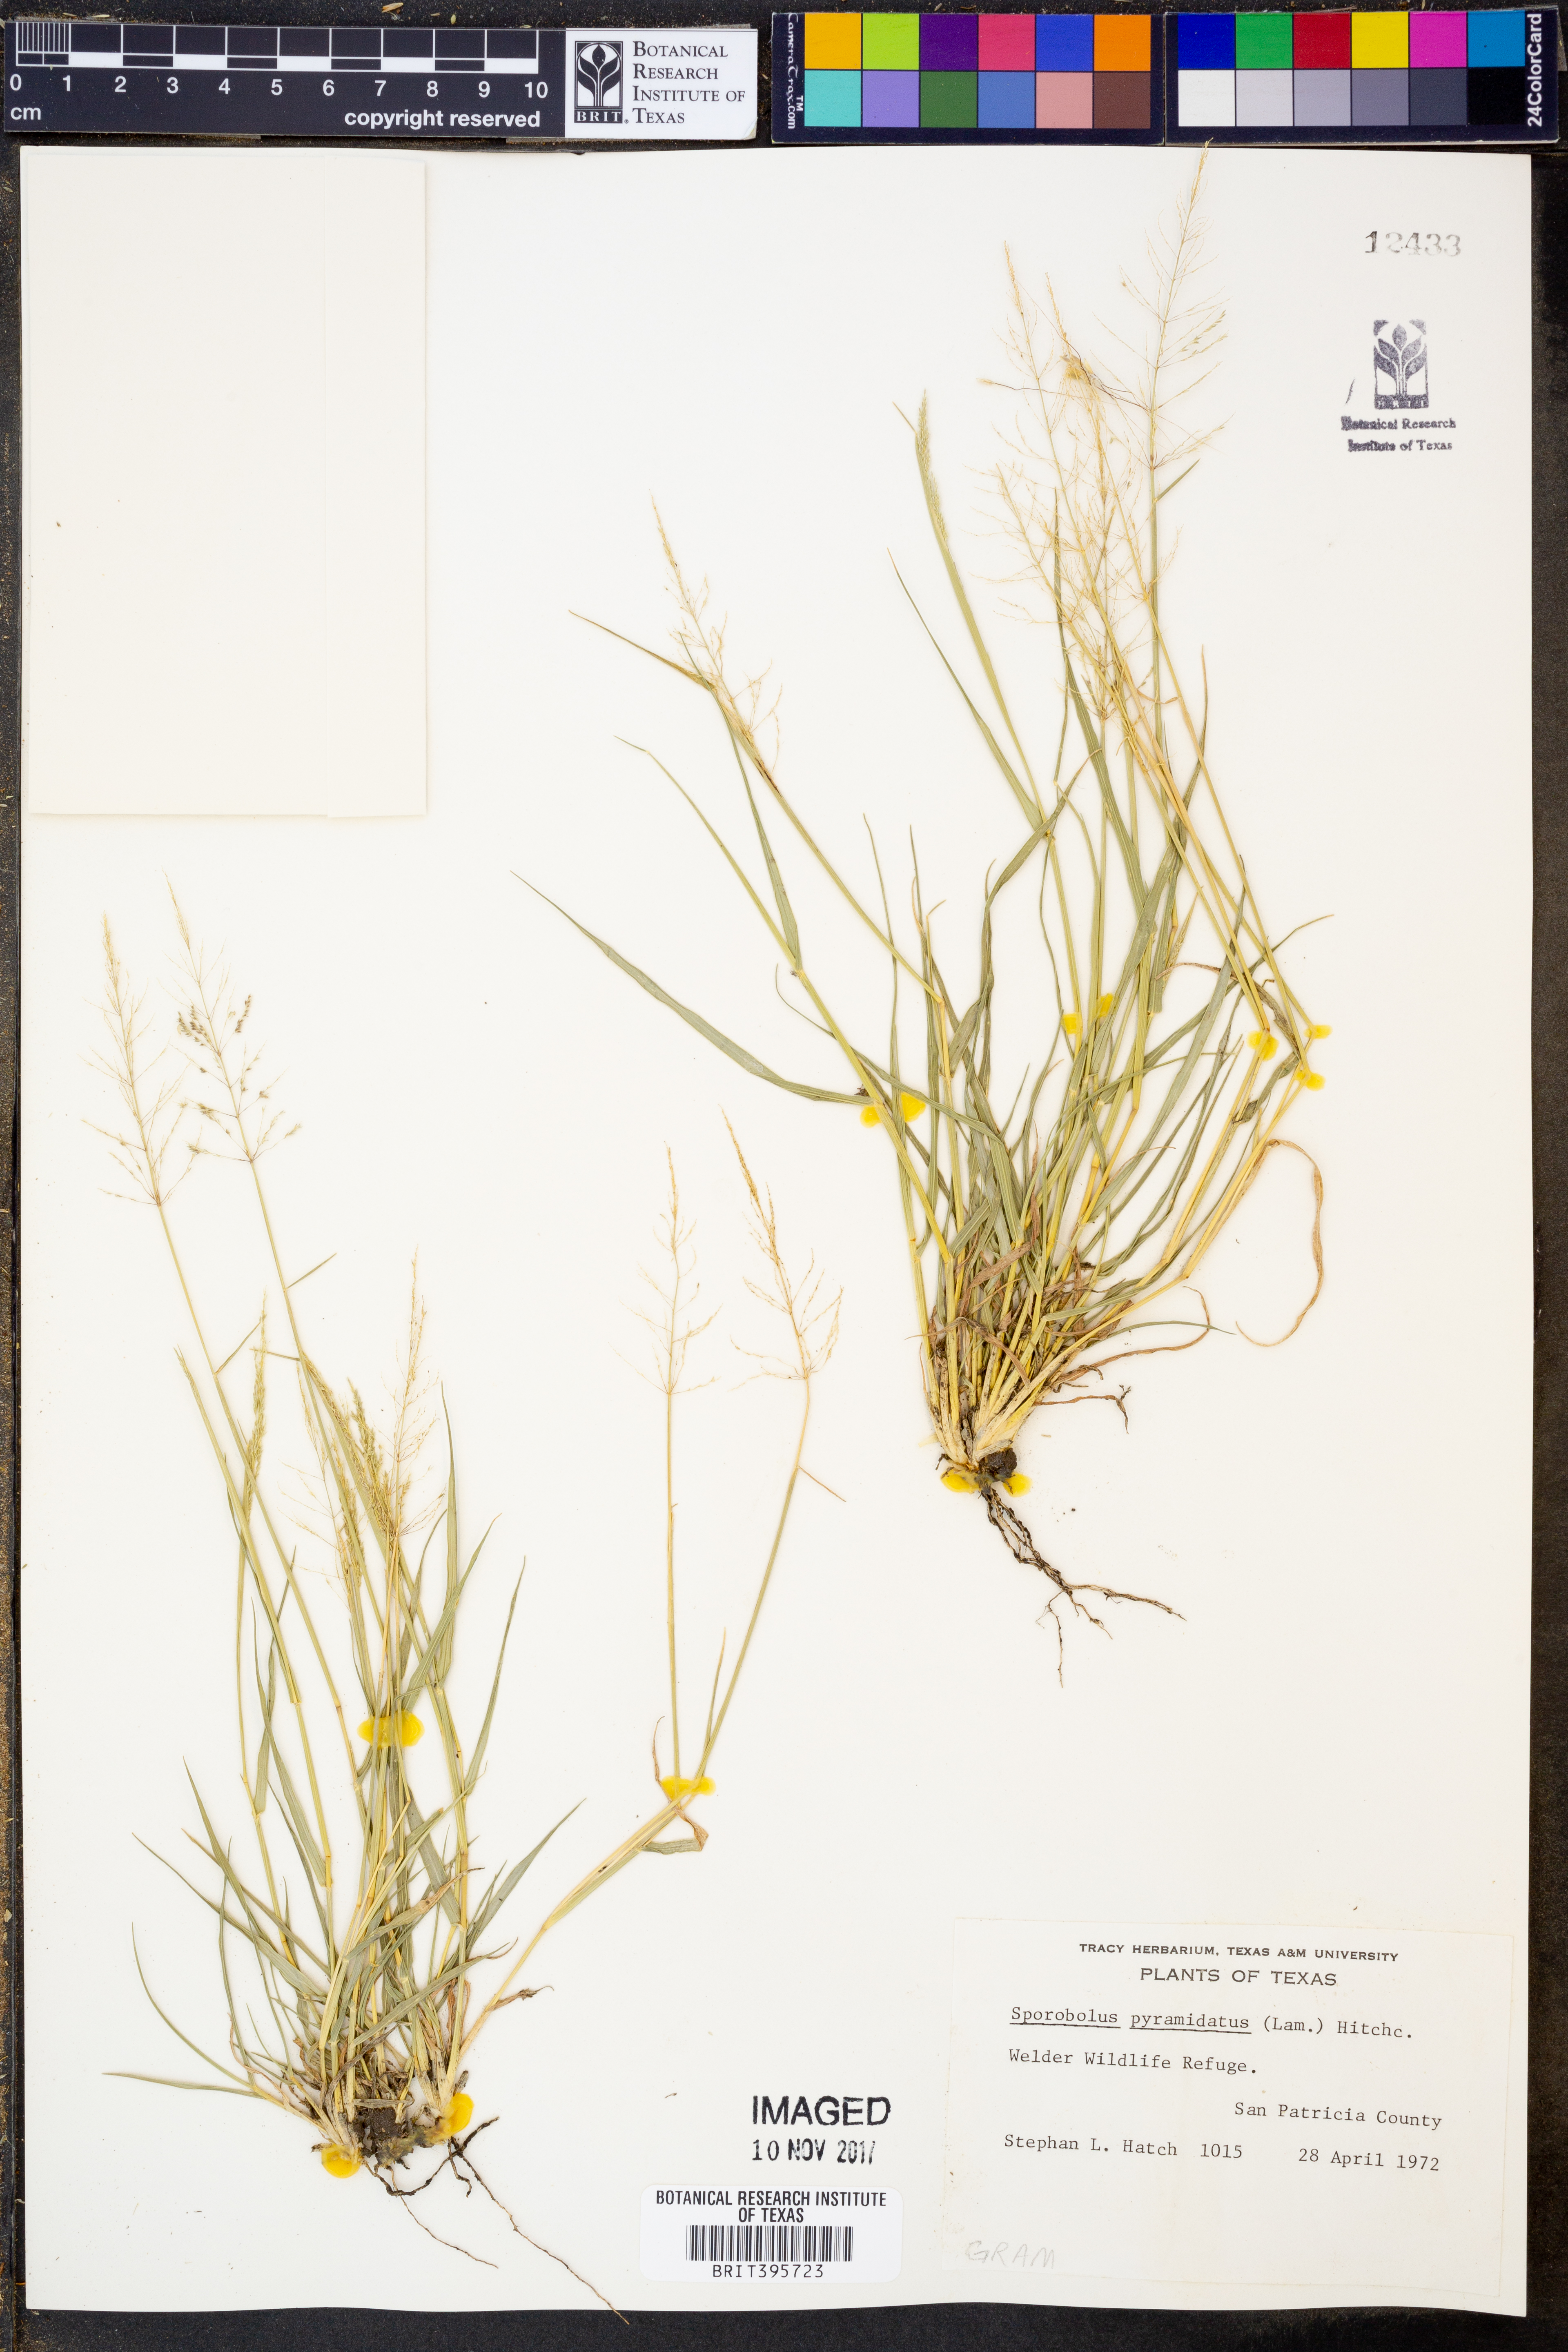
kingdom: Plantae
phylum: Tracheophyta
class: Liliopsida
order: Poales
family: Poaceae
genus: Sporobolus
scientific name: Sporobolus pyramidatus
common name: Whorled dropseed
